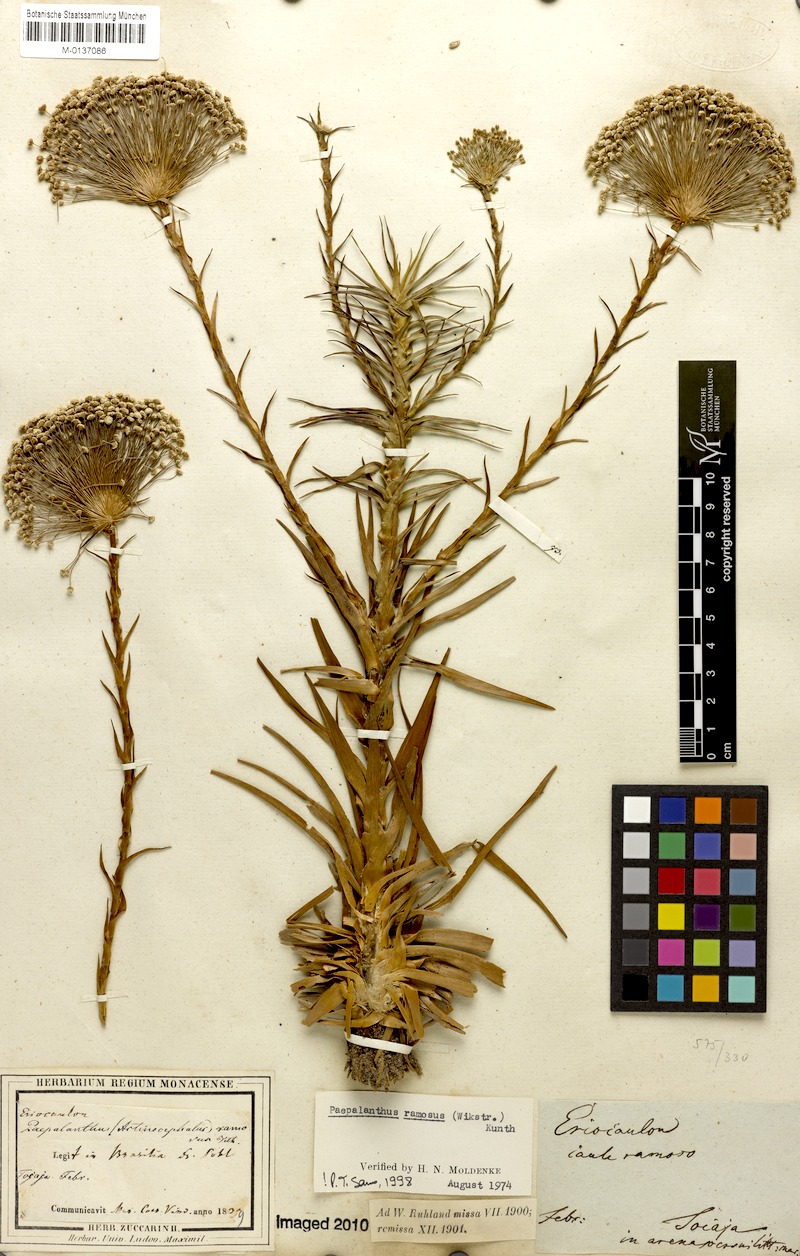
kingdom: Plantae
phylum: Tracheophyta
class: Liliopsida
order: Poales
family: Eriocaulaceae
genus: Paepalanthus
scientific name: Paepalanthus ramosus
